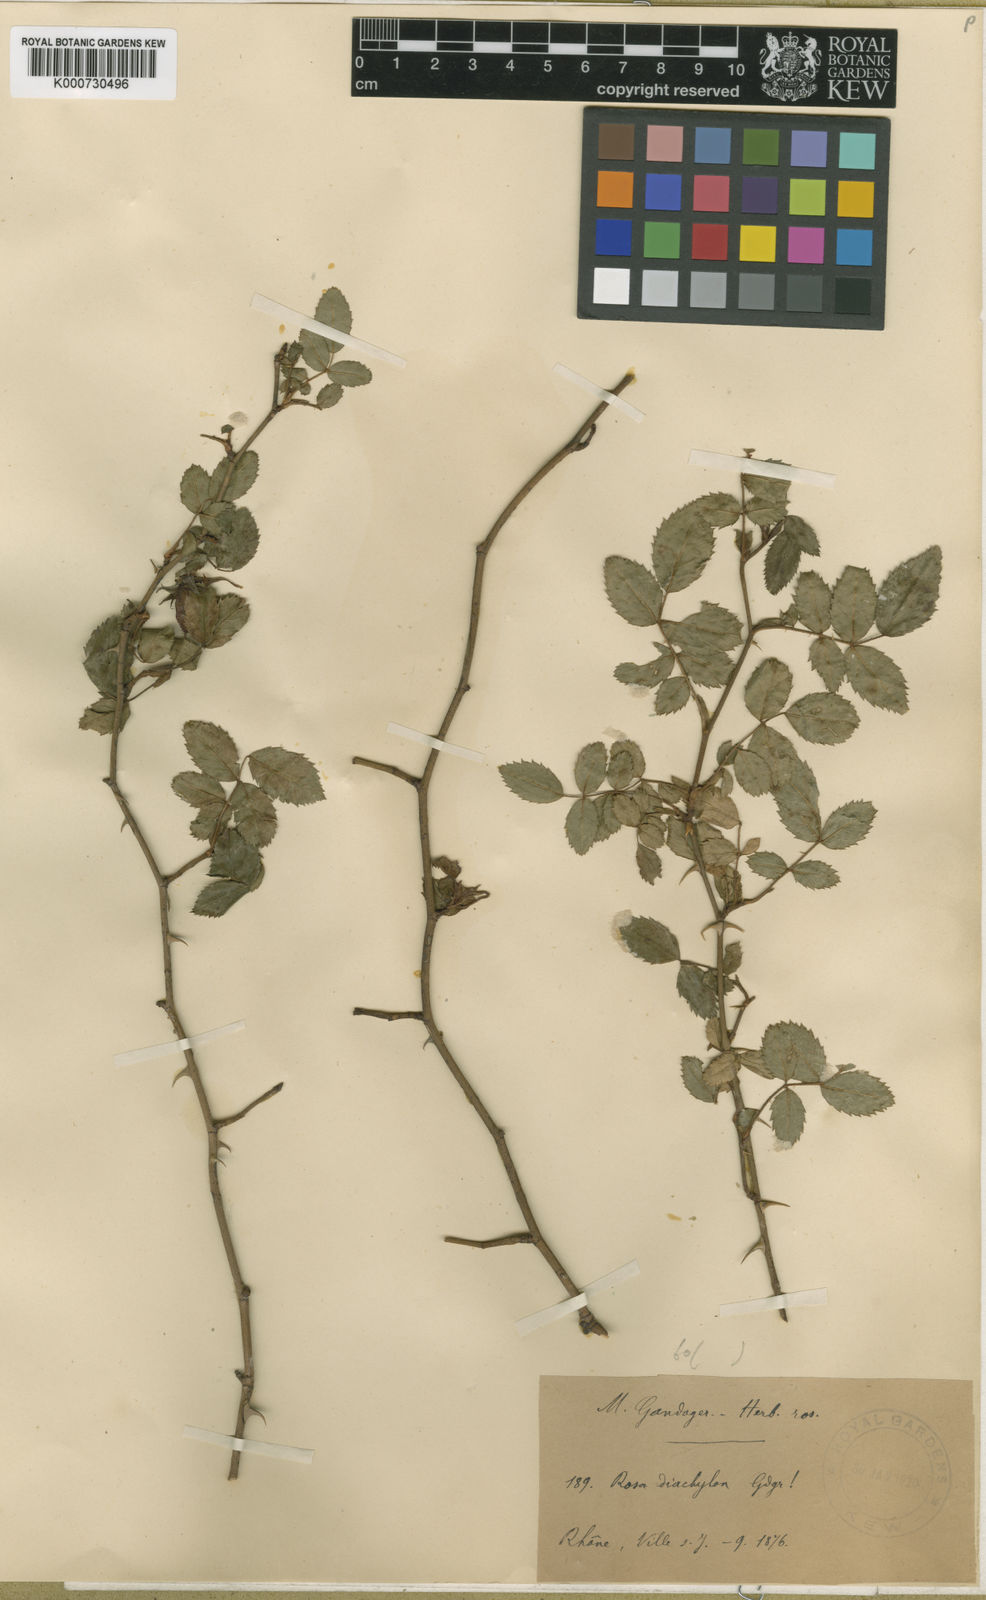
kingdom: Plantae
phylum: Tracheophyta
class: Magnoliopsida
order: Rosales
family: Rosaceae
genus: Rosa
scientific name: Rosa canina
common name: Dog rose
